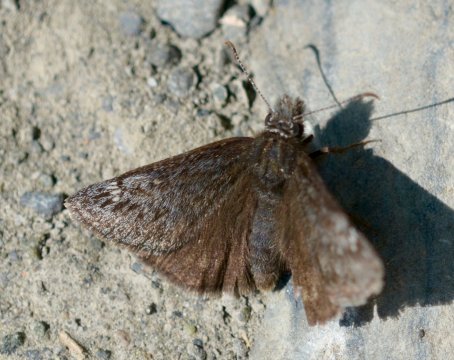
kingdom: Animalia
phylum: Arthropoda
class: Insecta
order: Lepidoptera
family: Hesperiidae
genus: Gesta
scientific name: Gesta
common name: Persius Duskywing
